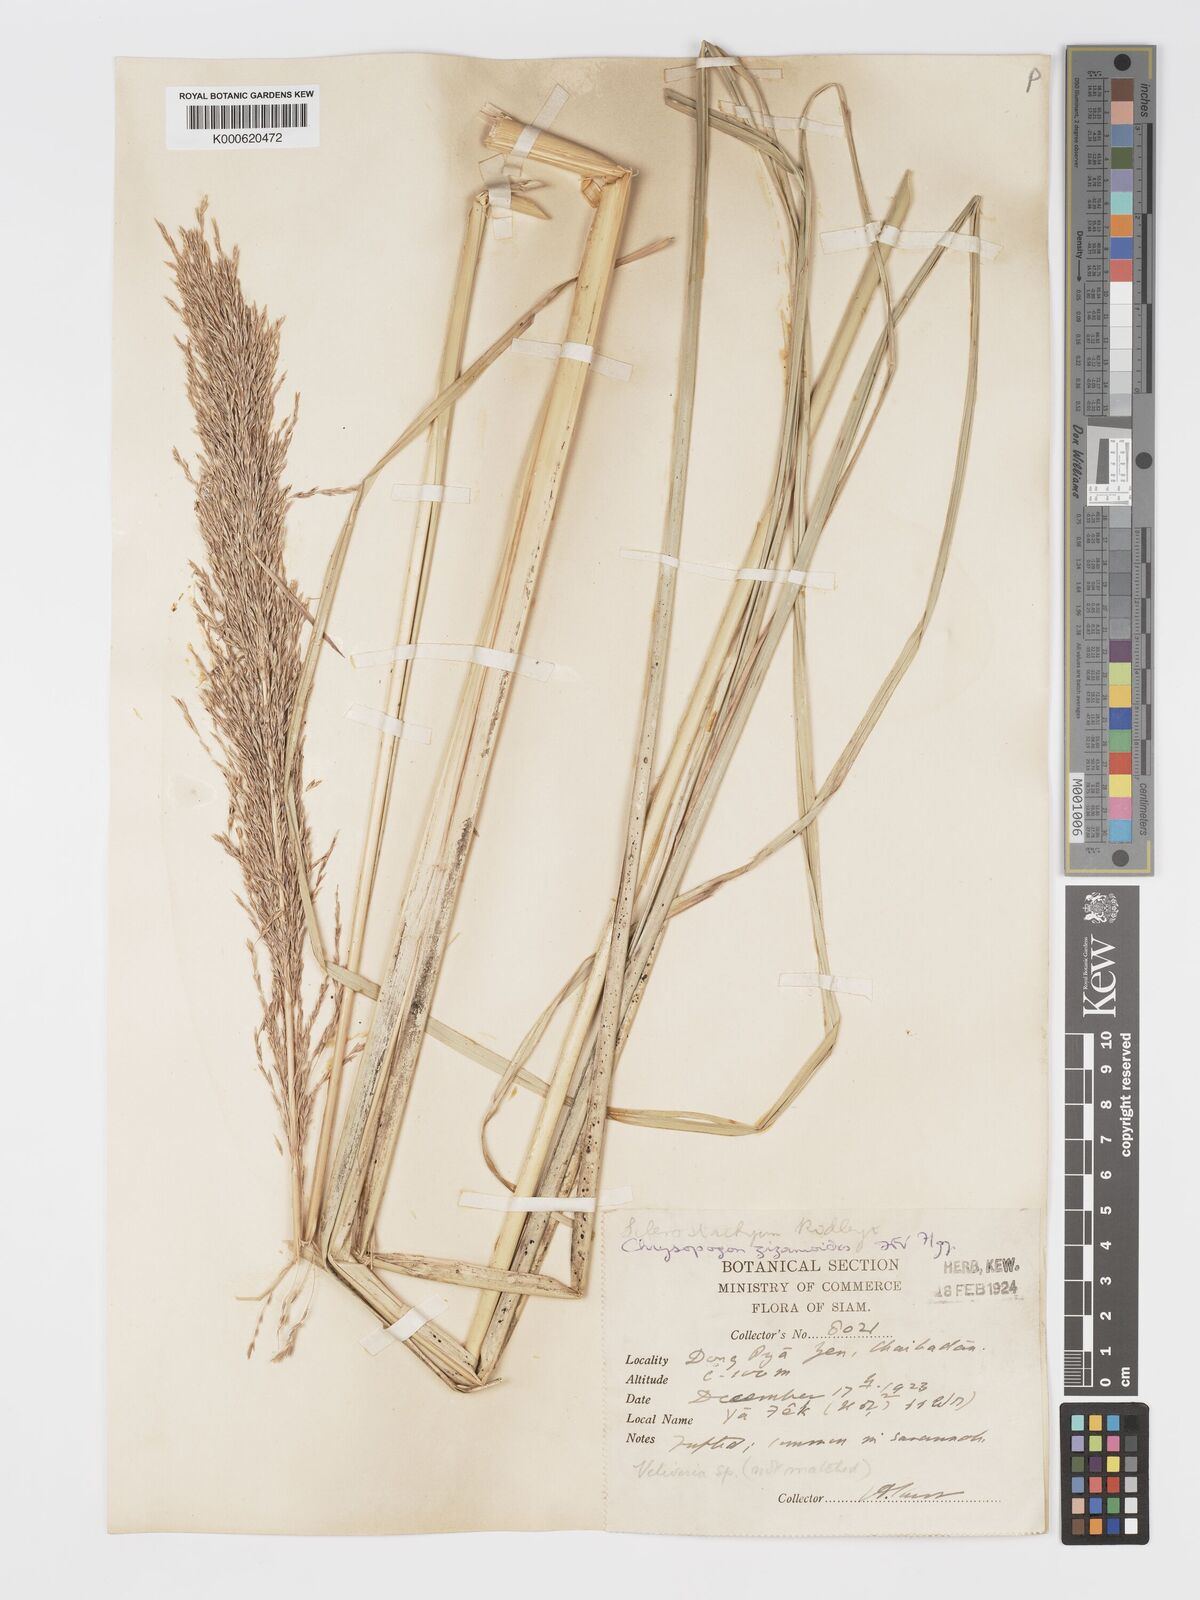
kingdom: Plantae
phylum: Tracheophyta
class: Liliopsida
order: Poales
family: Poaceae
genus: Chrysopogon
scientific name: Chrysopogon zizanioides
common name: False beardgrass
